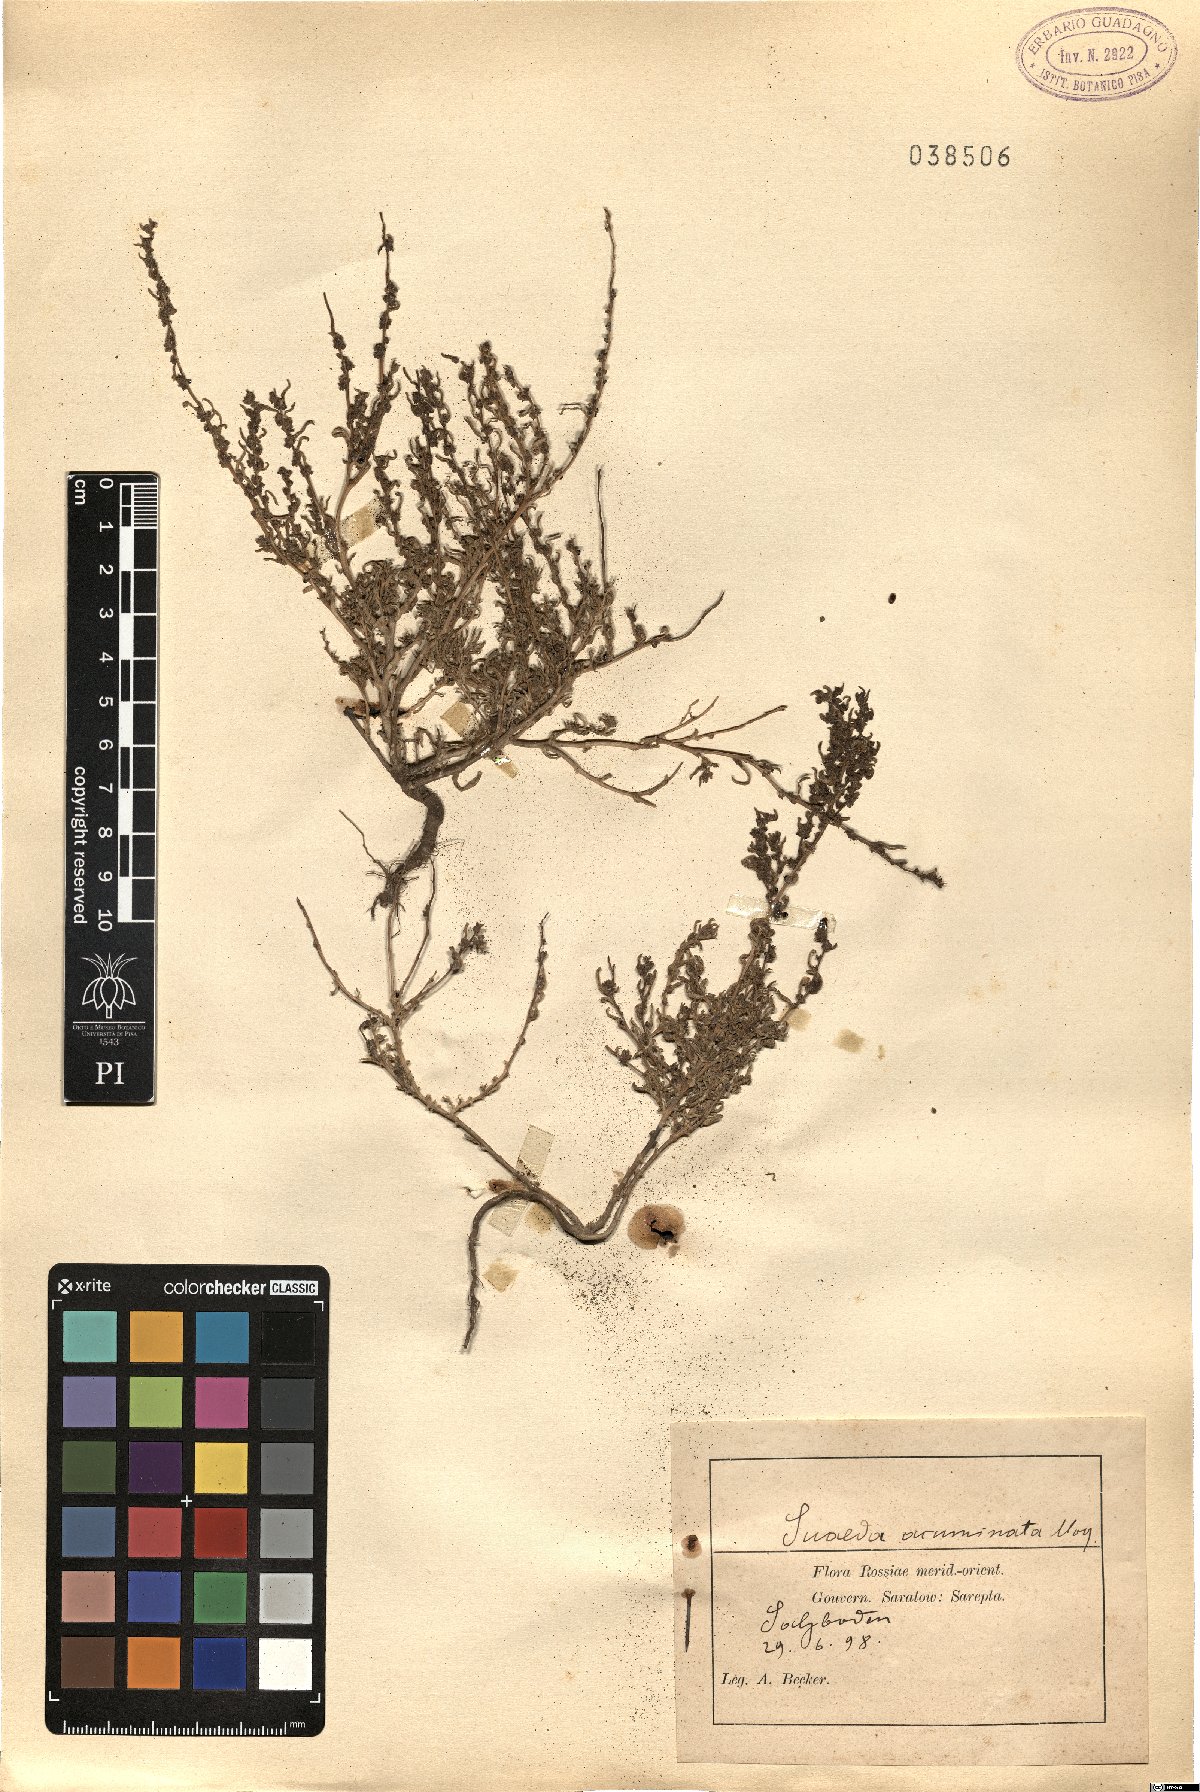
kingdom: Plantae
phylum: Tracheophyta
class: Magnoliopsida
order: Caryophyllales
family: Amaranthaceae
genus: Suaeda
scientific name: Suaeda acuminata
